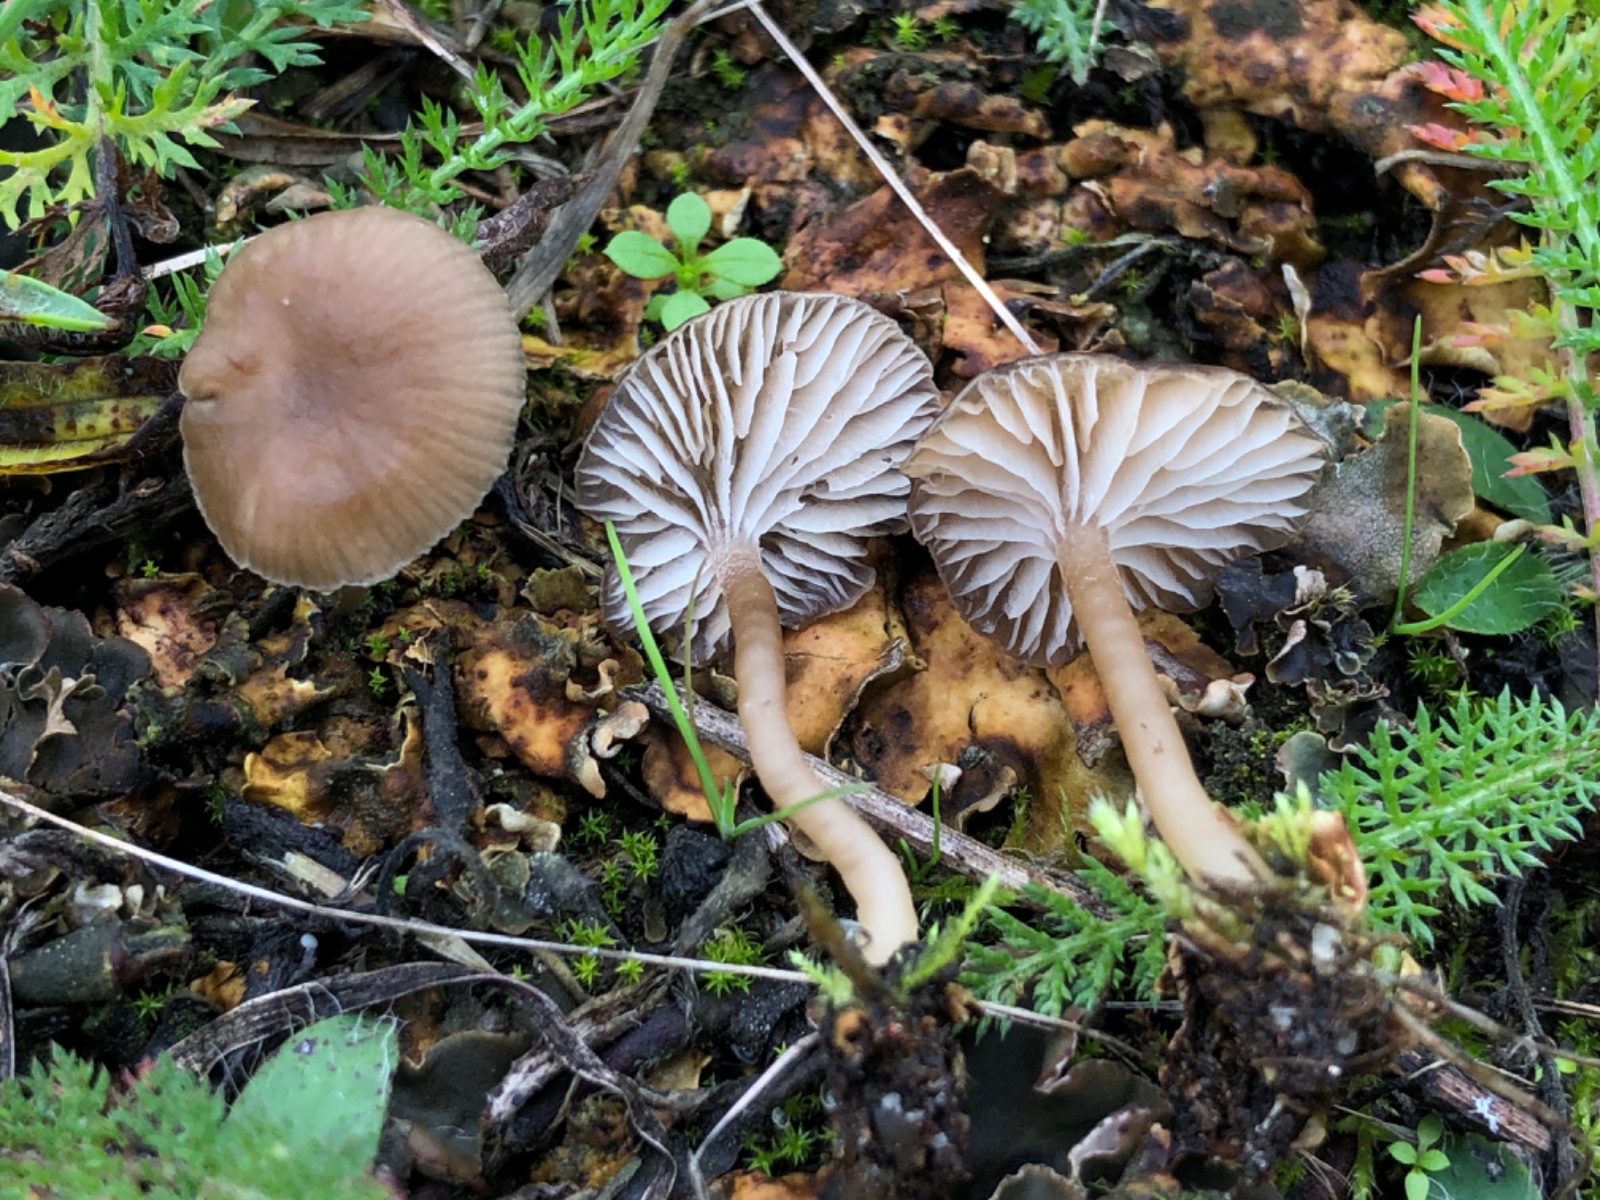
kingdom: Fungi
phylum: Basidiomycota
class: Agaricomycetes
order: Agaricales
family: Tricholomataceae
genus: Gamundia
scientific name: Gamundia xerophila
